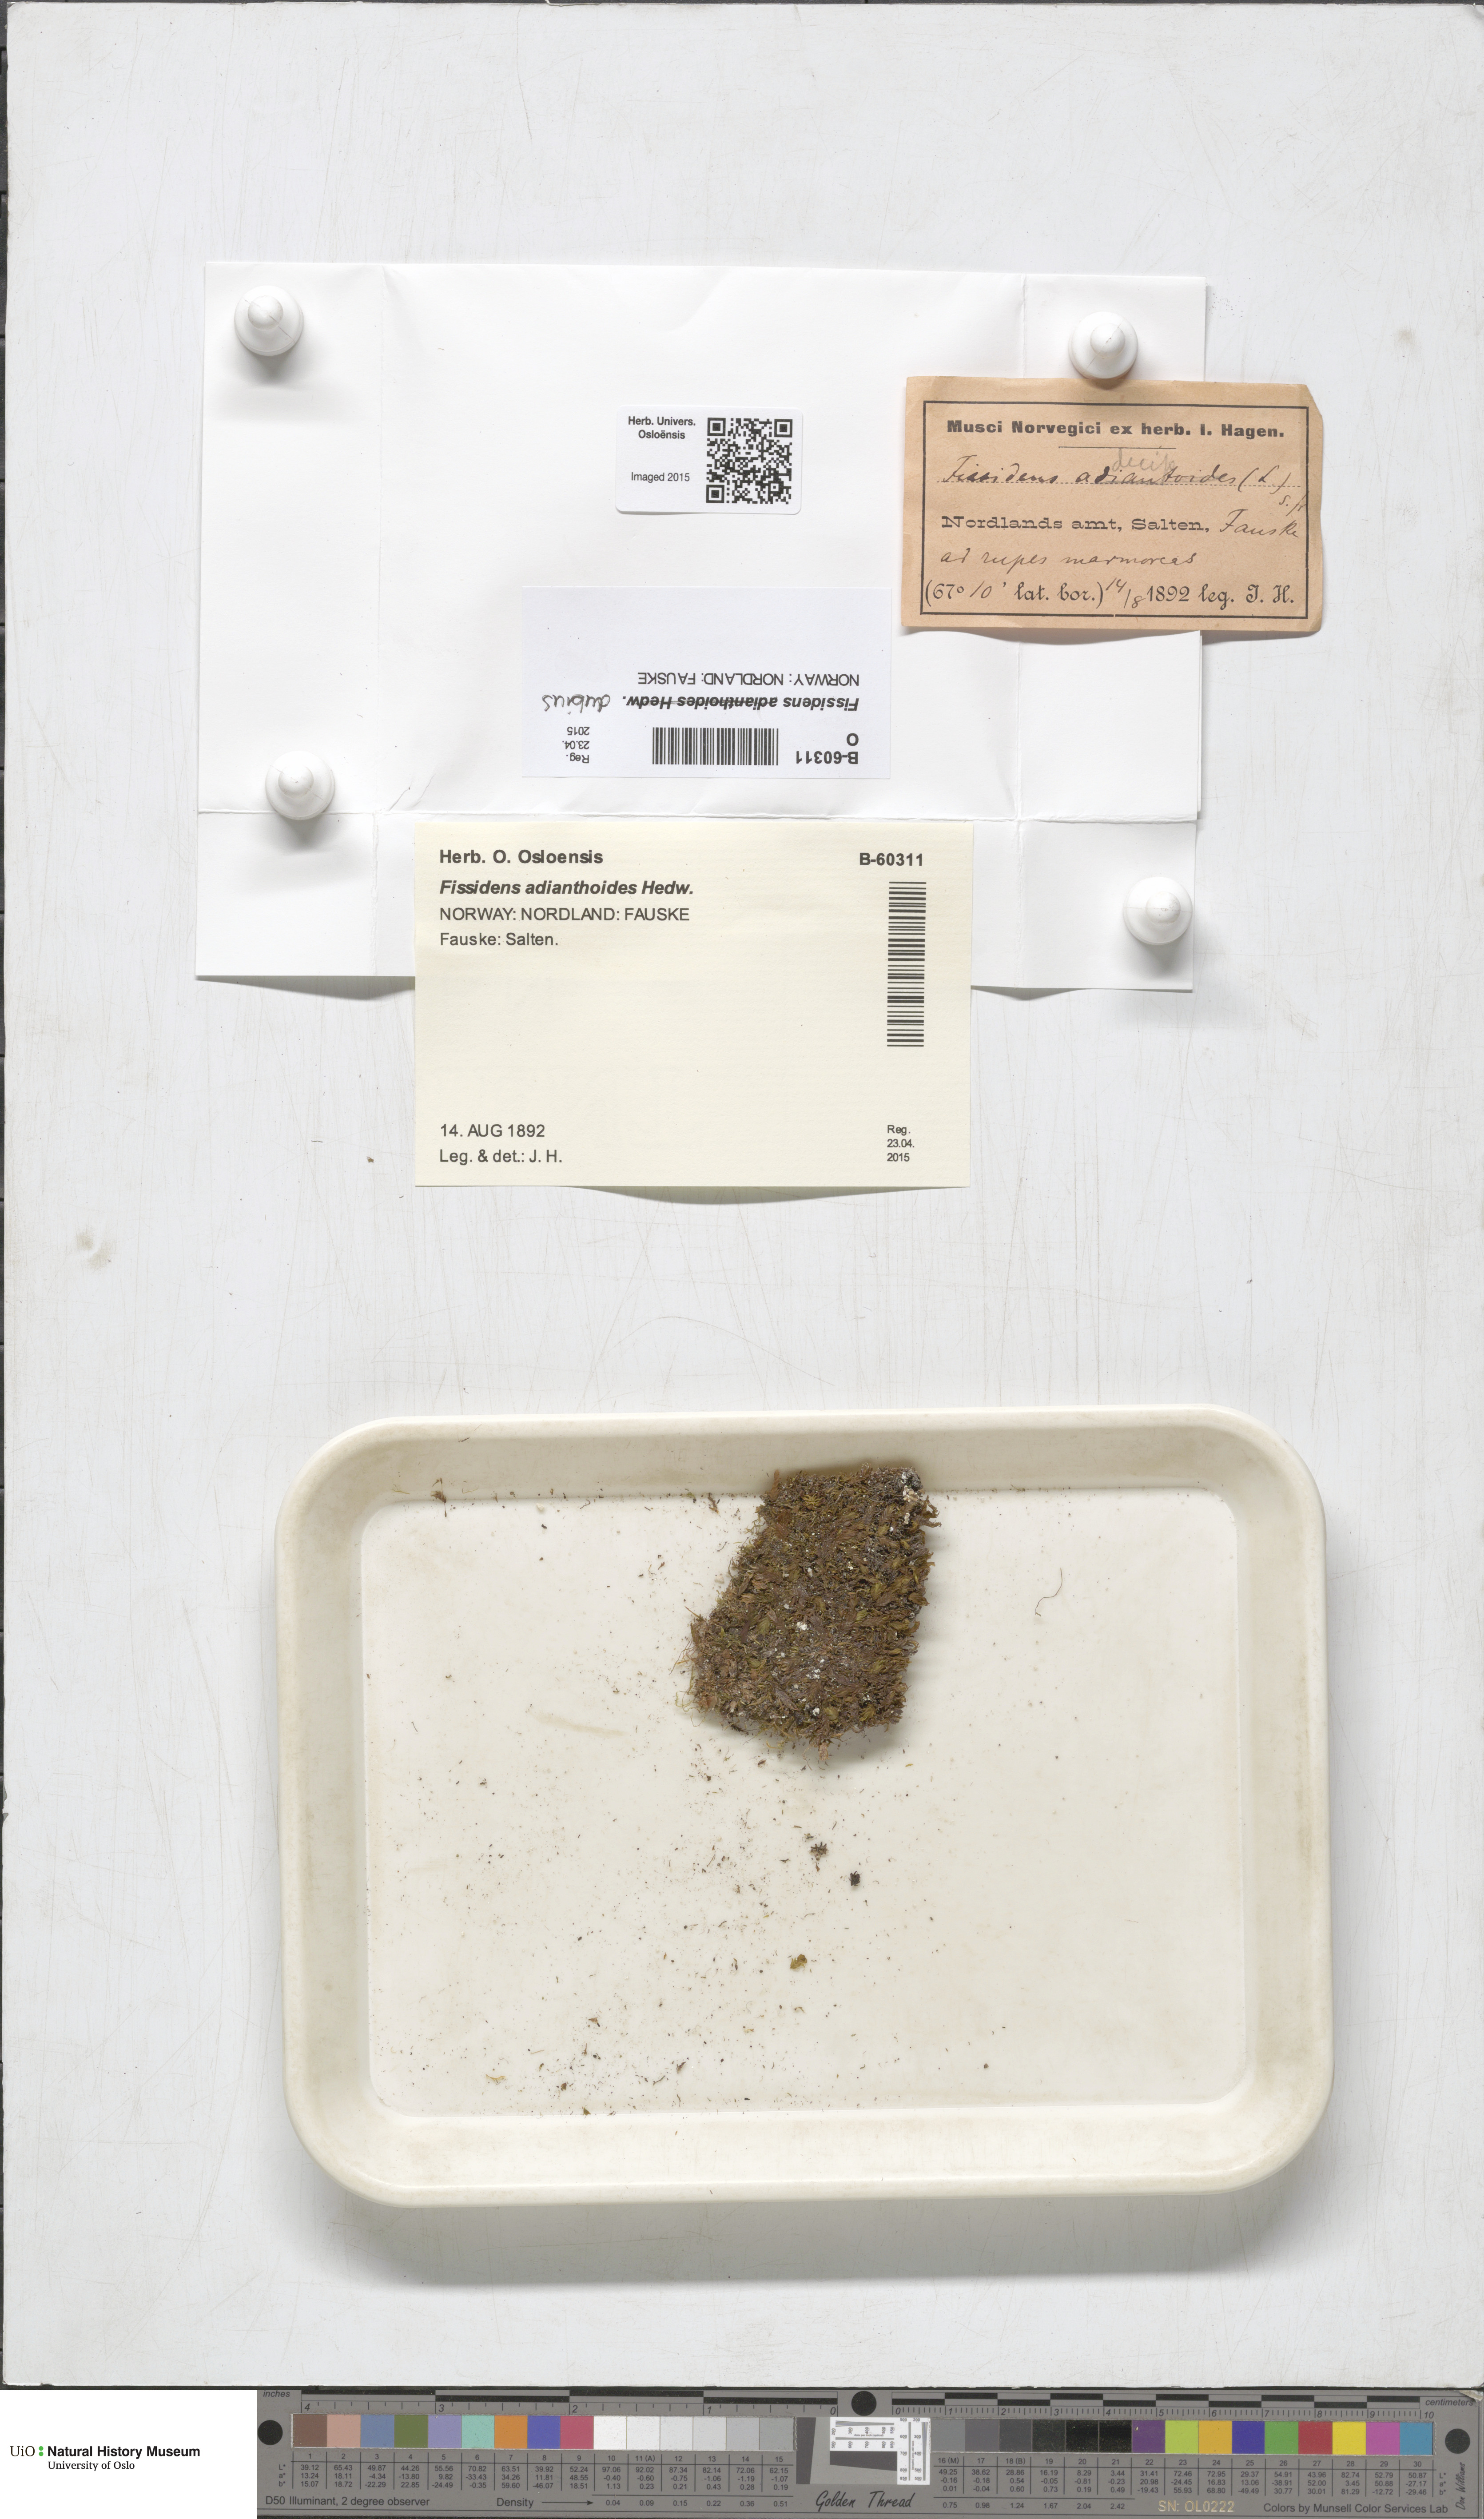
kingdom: Plantae
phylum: Bryophyta
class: Bryopsida
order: Dicranales
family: Fissidentaceae
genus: Fissidens
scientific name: Fissidens dubius
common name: Rock pocket moss
